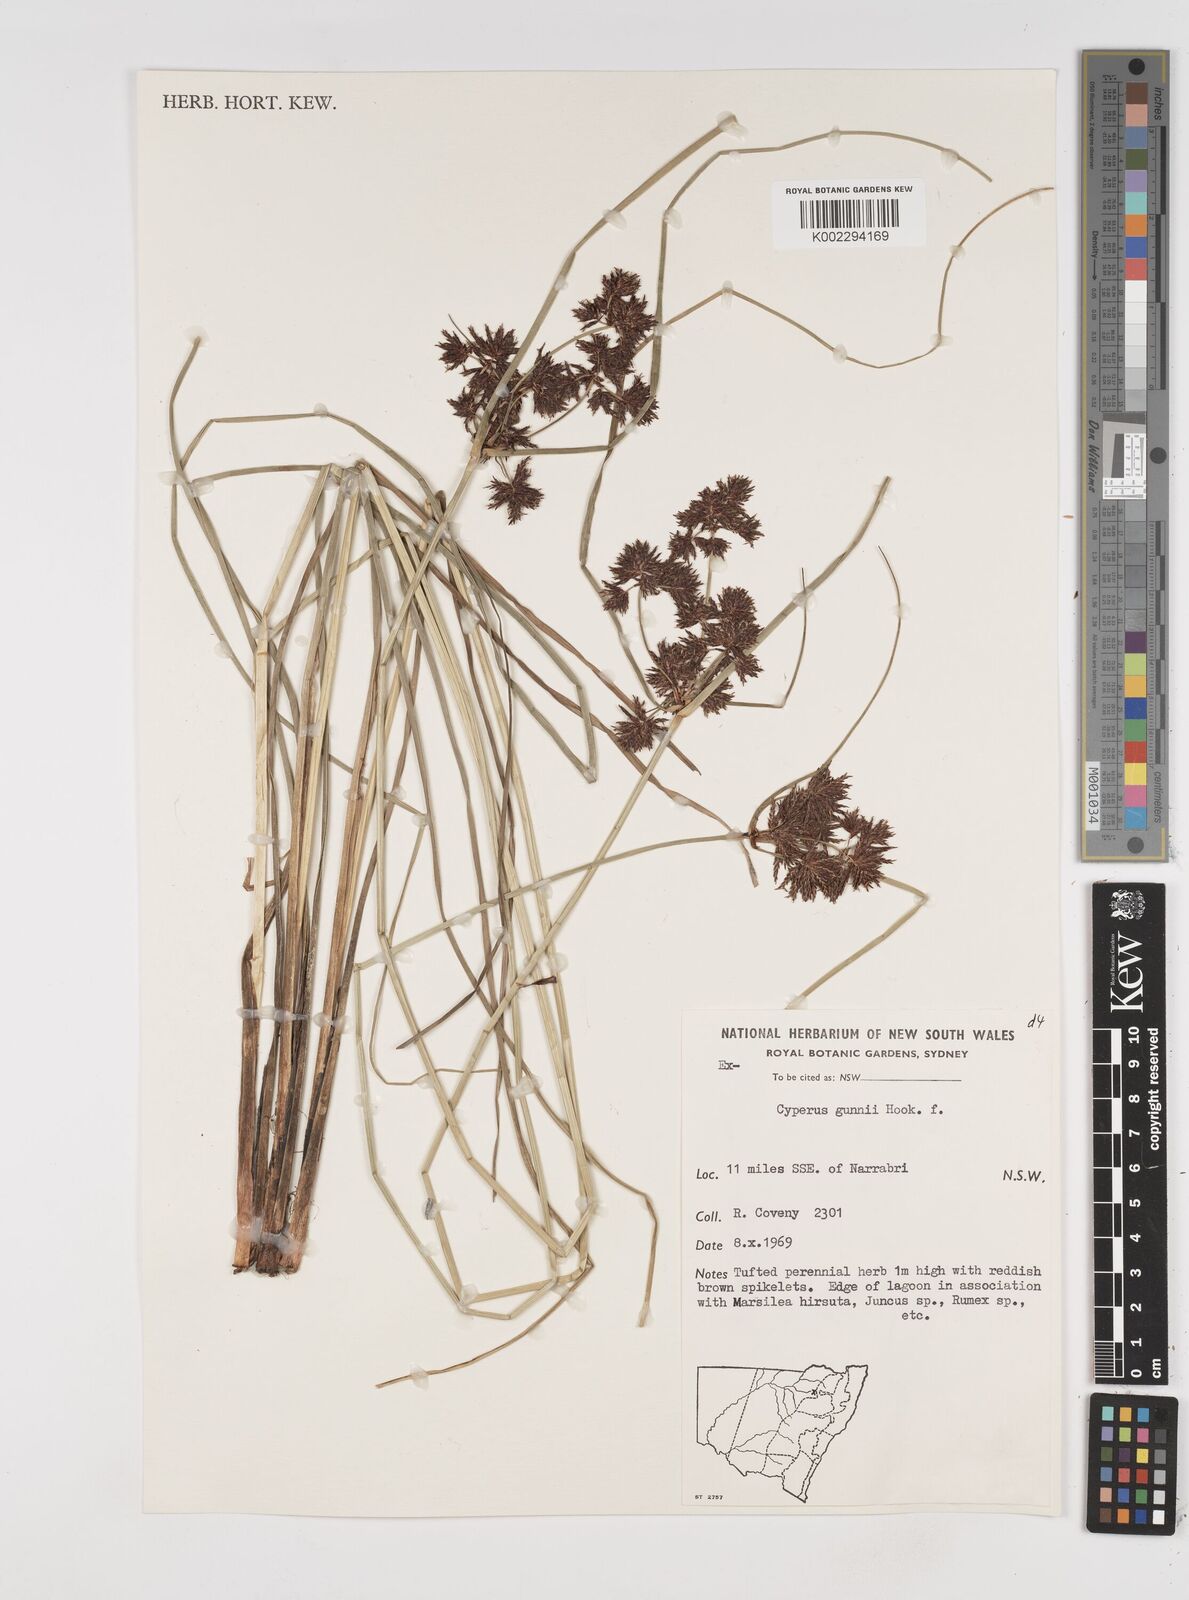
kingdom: Plantae
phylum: Tracheophyta
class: Liliopsida
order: Poales
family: Cyperaceae
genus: Cyperus
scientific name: Cyperus gunnii
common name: Flecked flat-sedge
